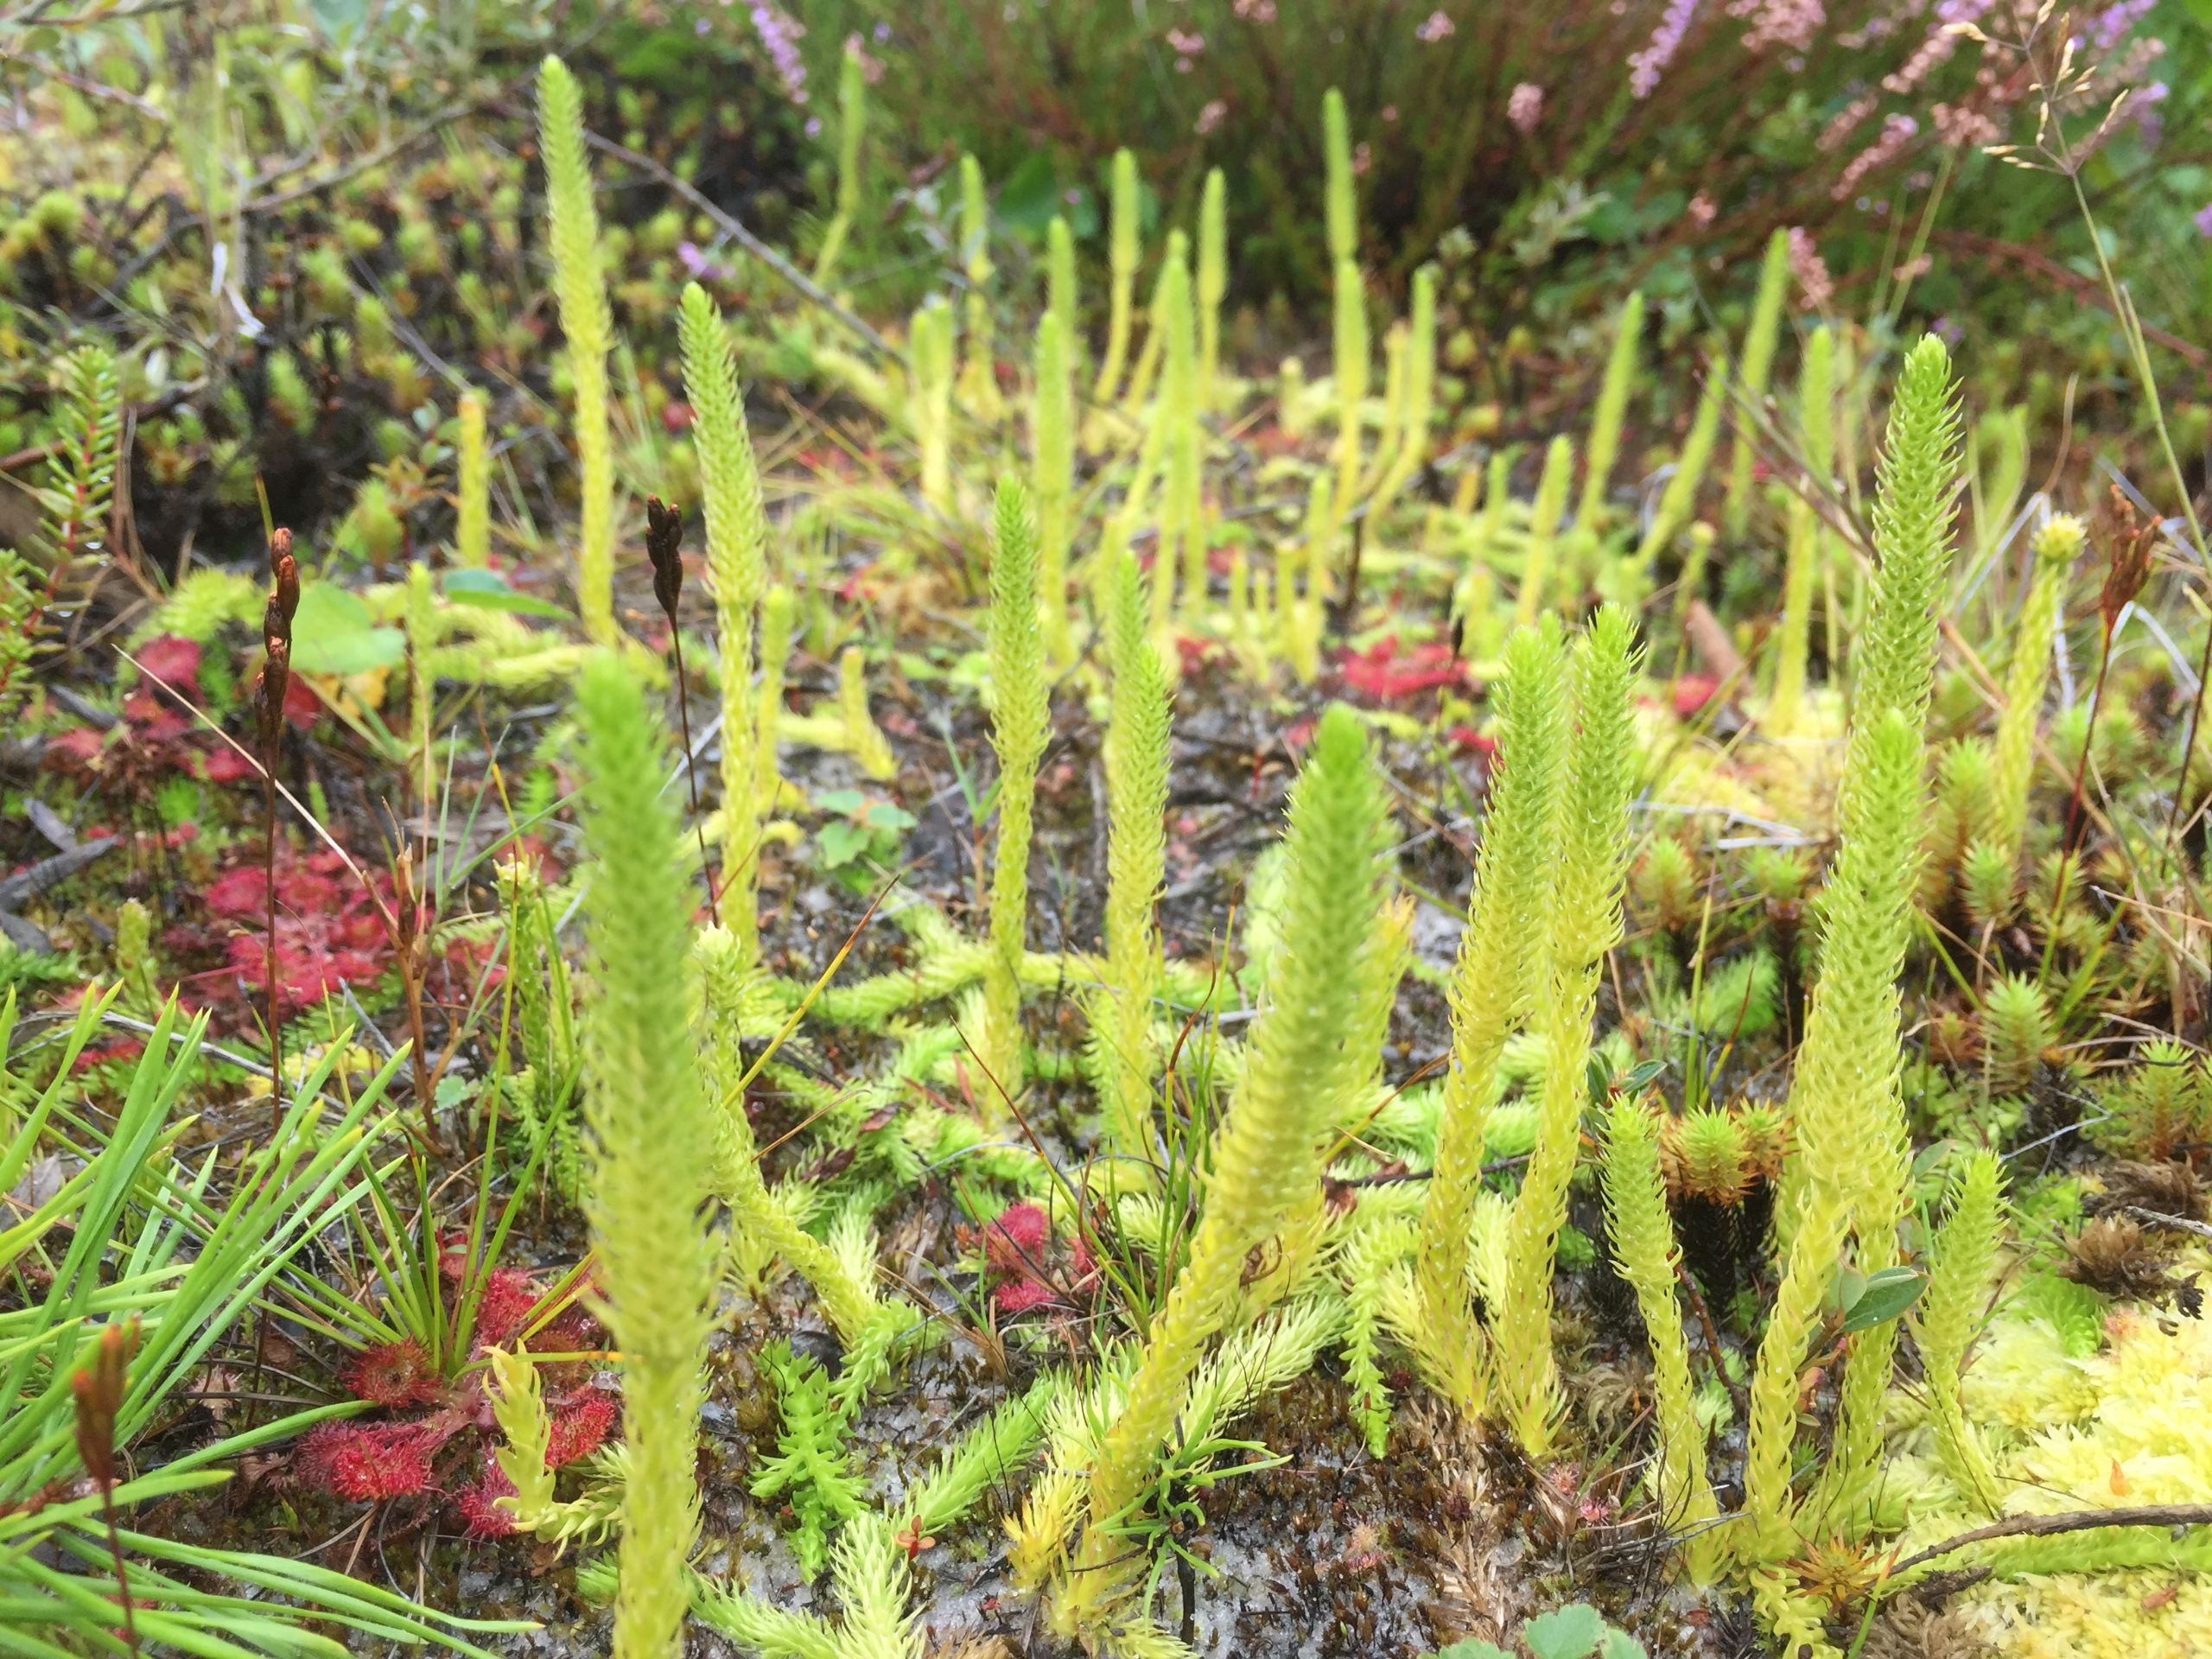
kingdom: Plantae
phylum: Tracheophyta
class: Lycopodiopsida
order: Lycopodiales
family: Lycopodiaceae
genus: Lycopodiella
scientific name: Lycopodiella inundata
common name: Liden ulvefod
